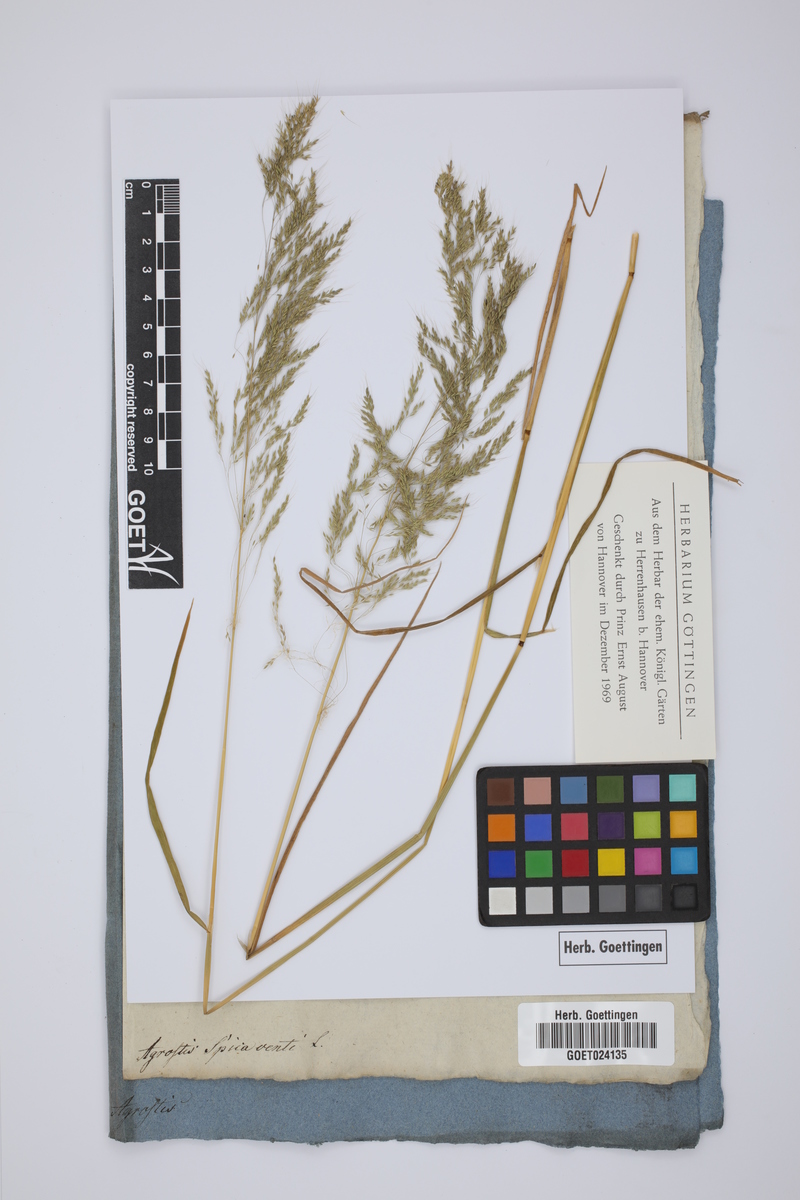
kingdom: Plantae
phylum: Tracheophyta
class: Liliopsida
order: Poales
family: Poaceae
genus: Apera
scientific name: Apera spica-venti
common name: Loose silky-bent
